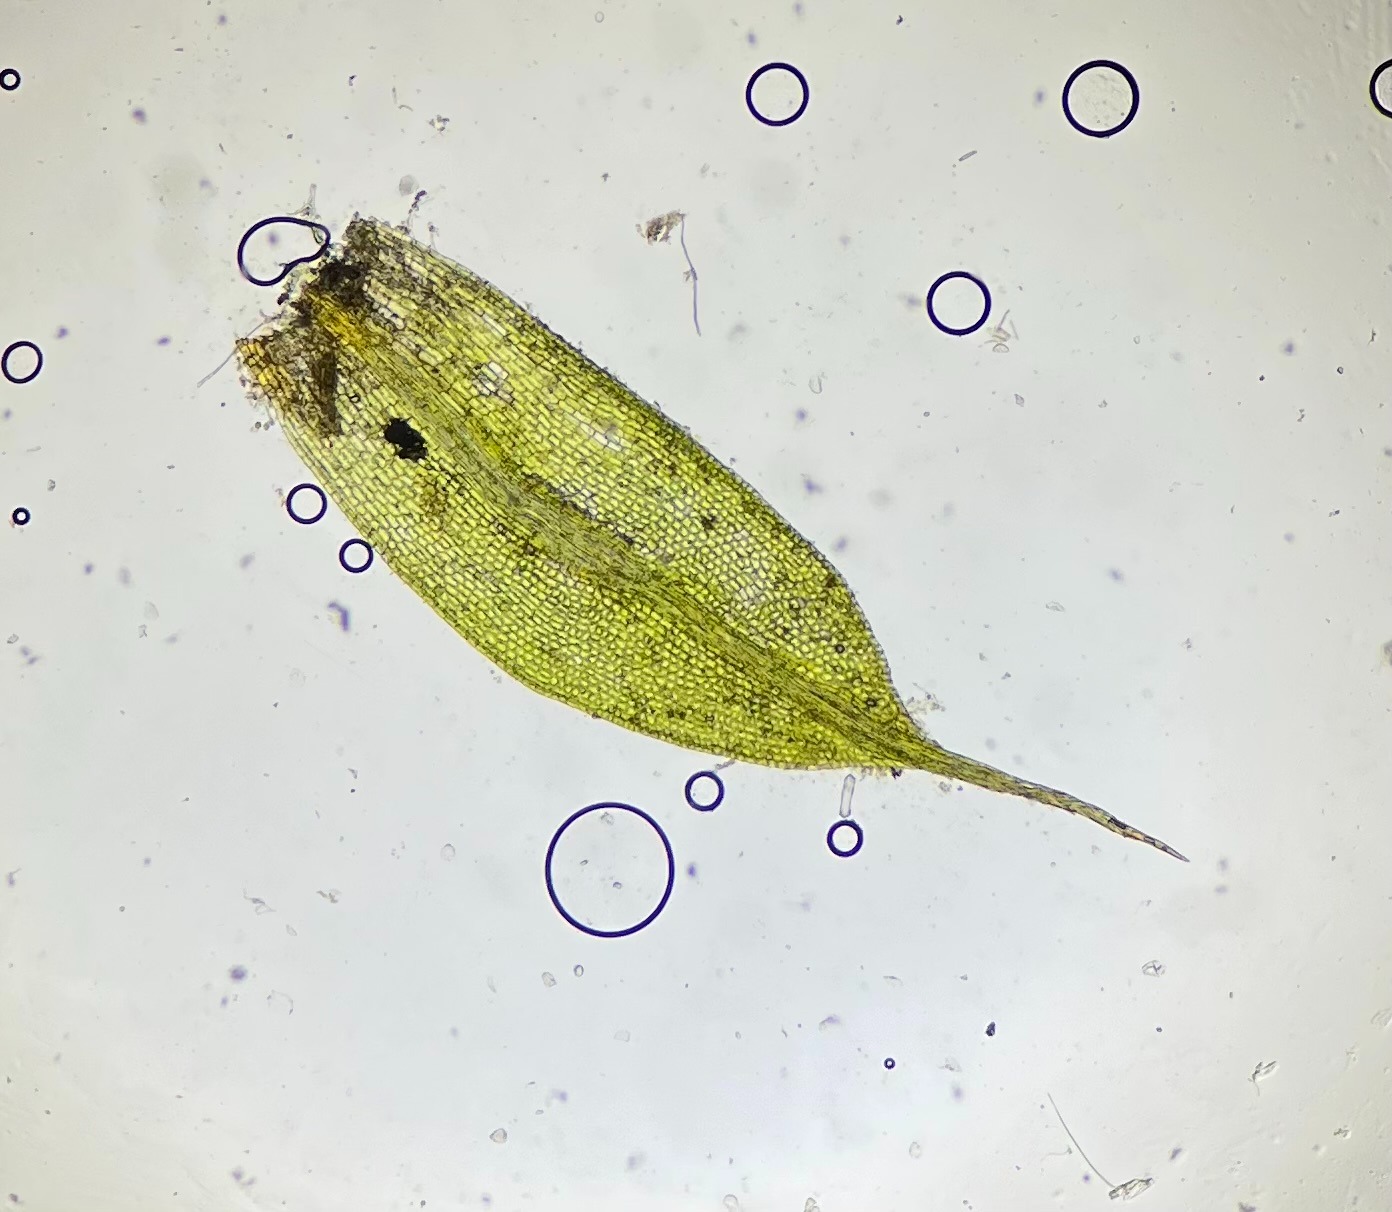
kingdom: Plantae
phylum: Bryophyta
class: Bryopsida
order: Pottiales
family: Pottiaceae
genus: Tortula
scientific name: Tortula protobryoides
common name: Lukket bægermos
